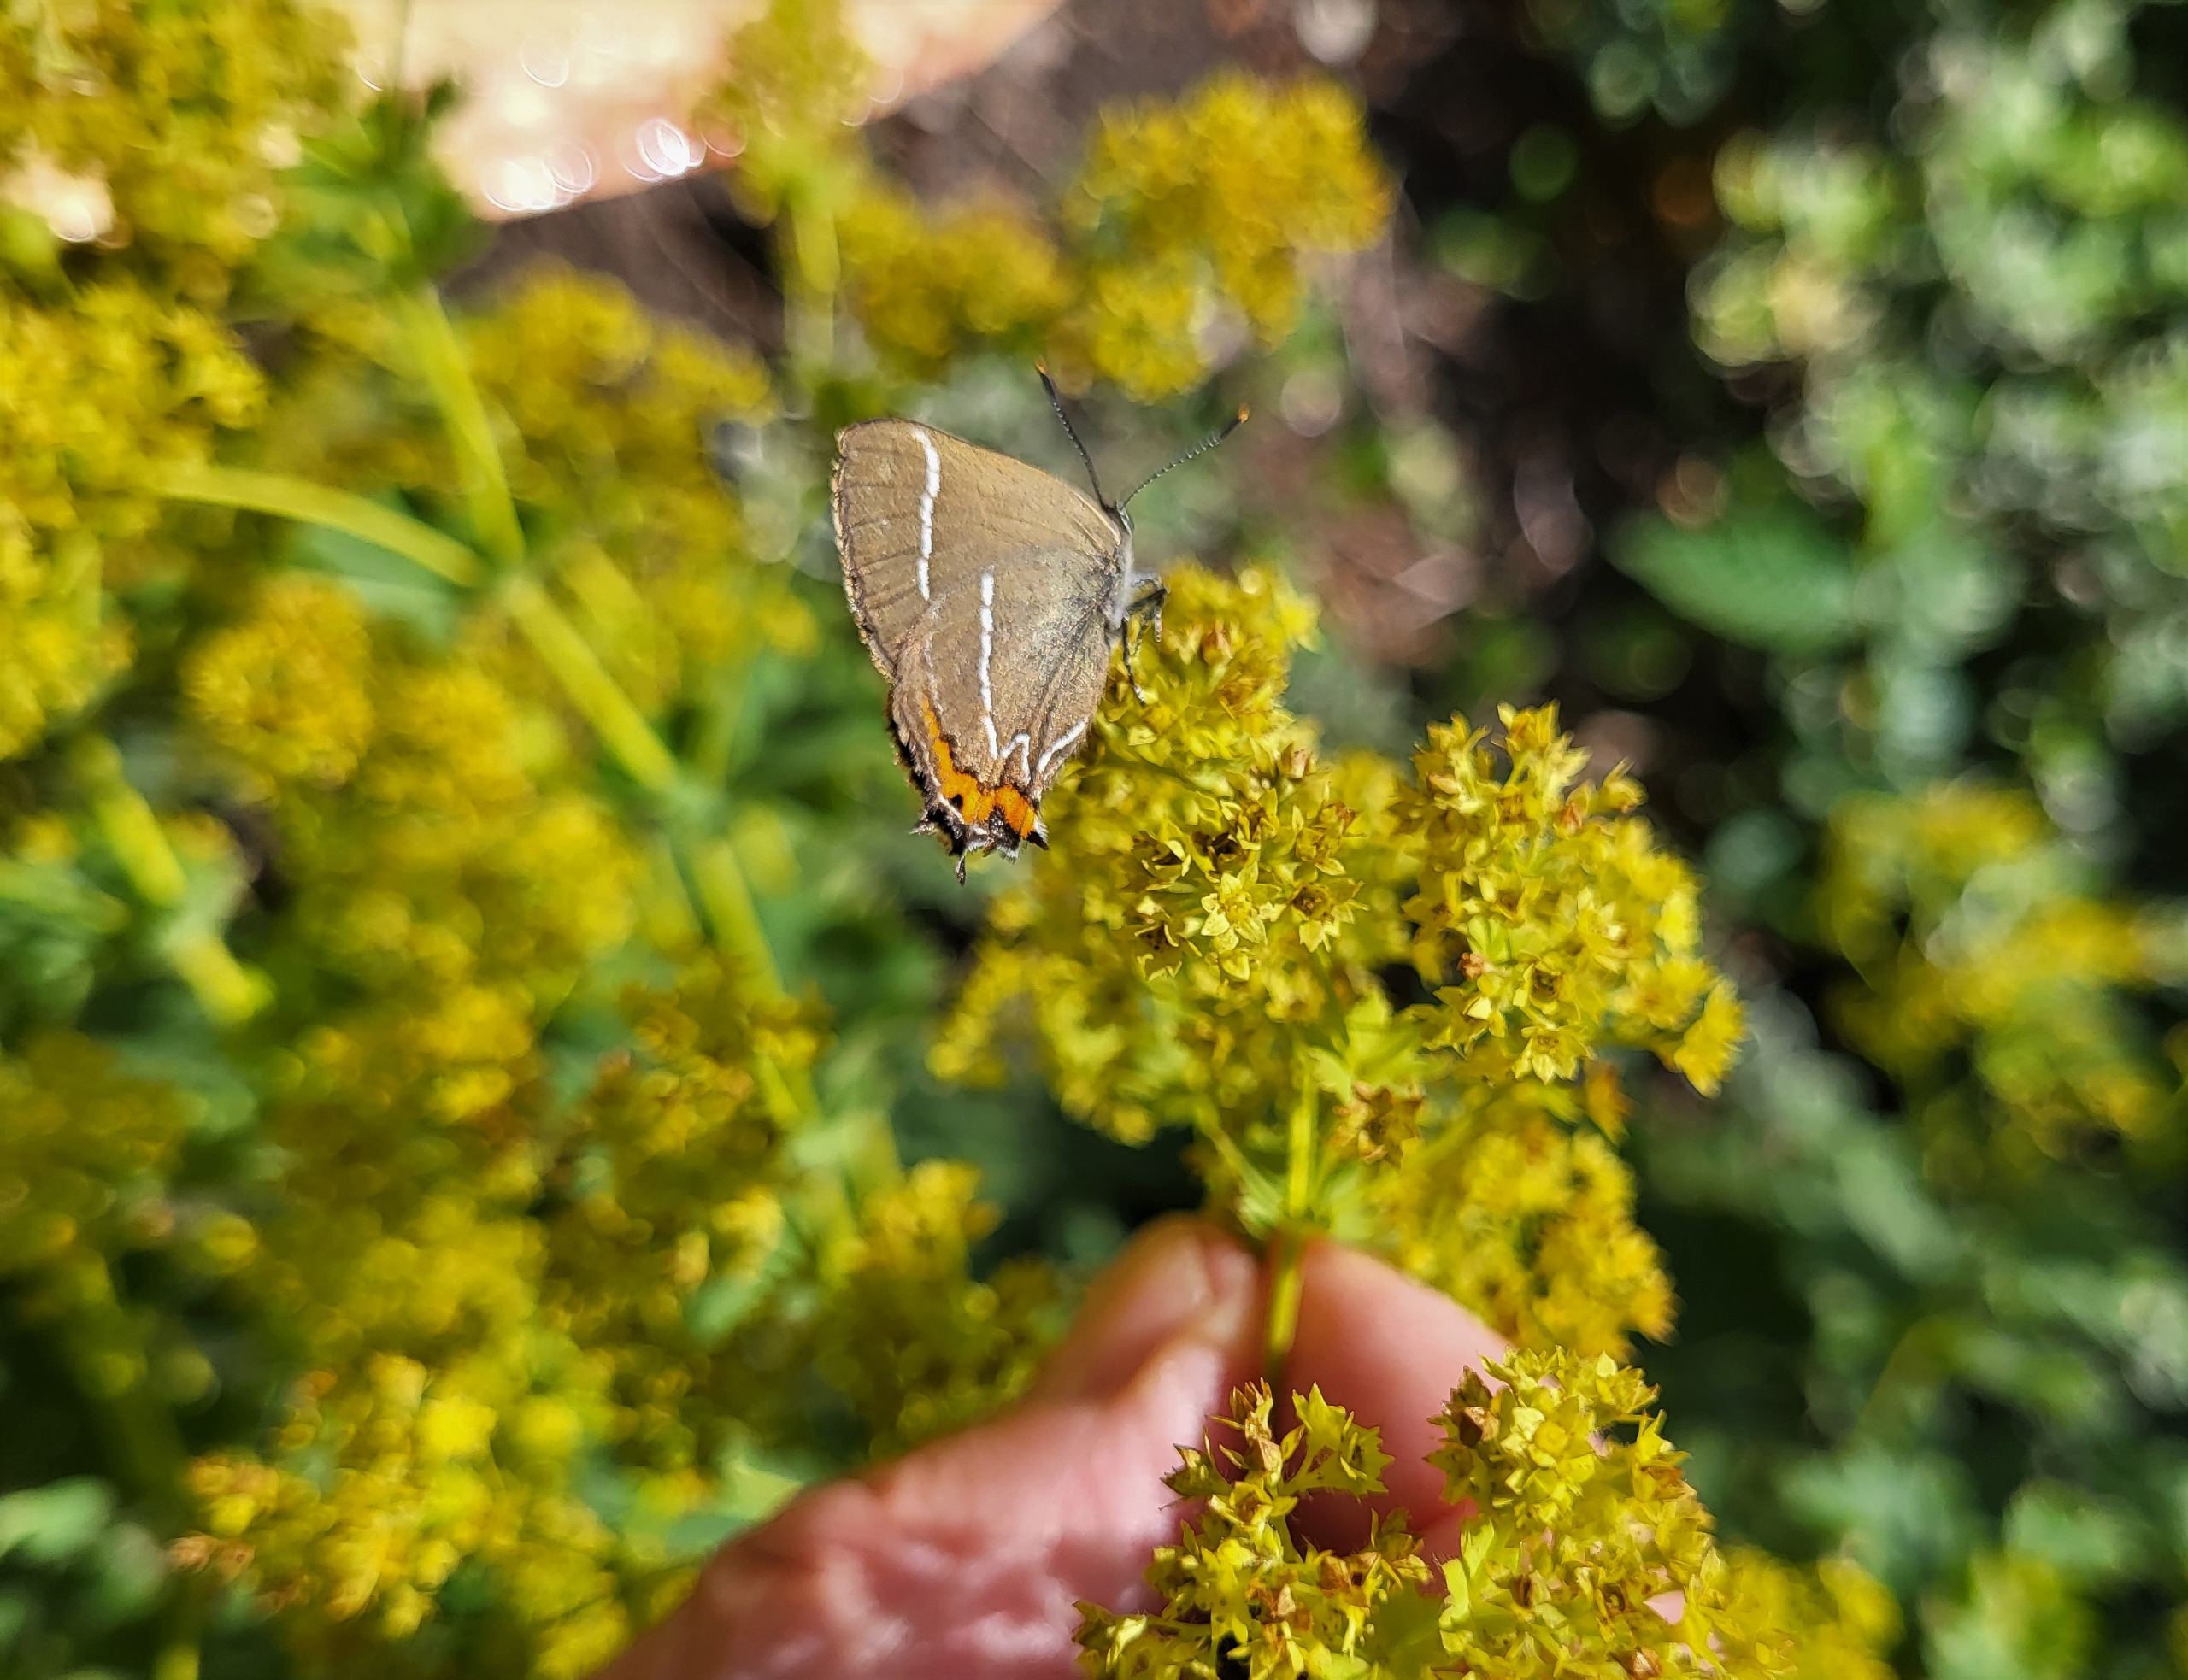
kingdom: Animalia
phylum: Arthropoda
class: Insecta
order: Lepidoptera
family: Lycaenidae
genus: Satyrium
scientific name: Satyrium w-album
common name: Det hvide W
